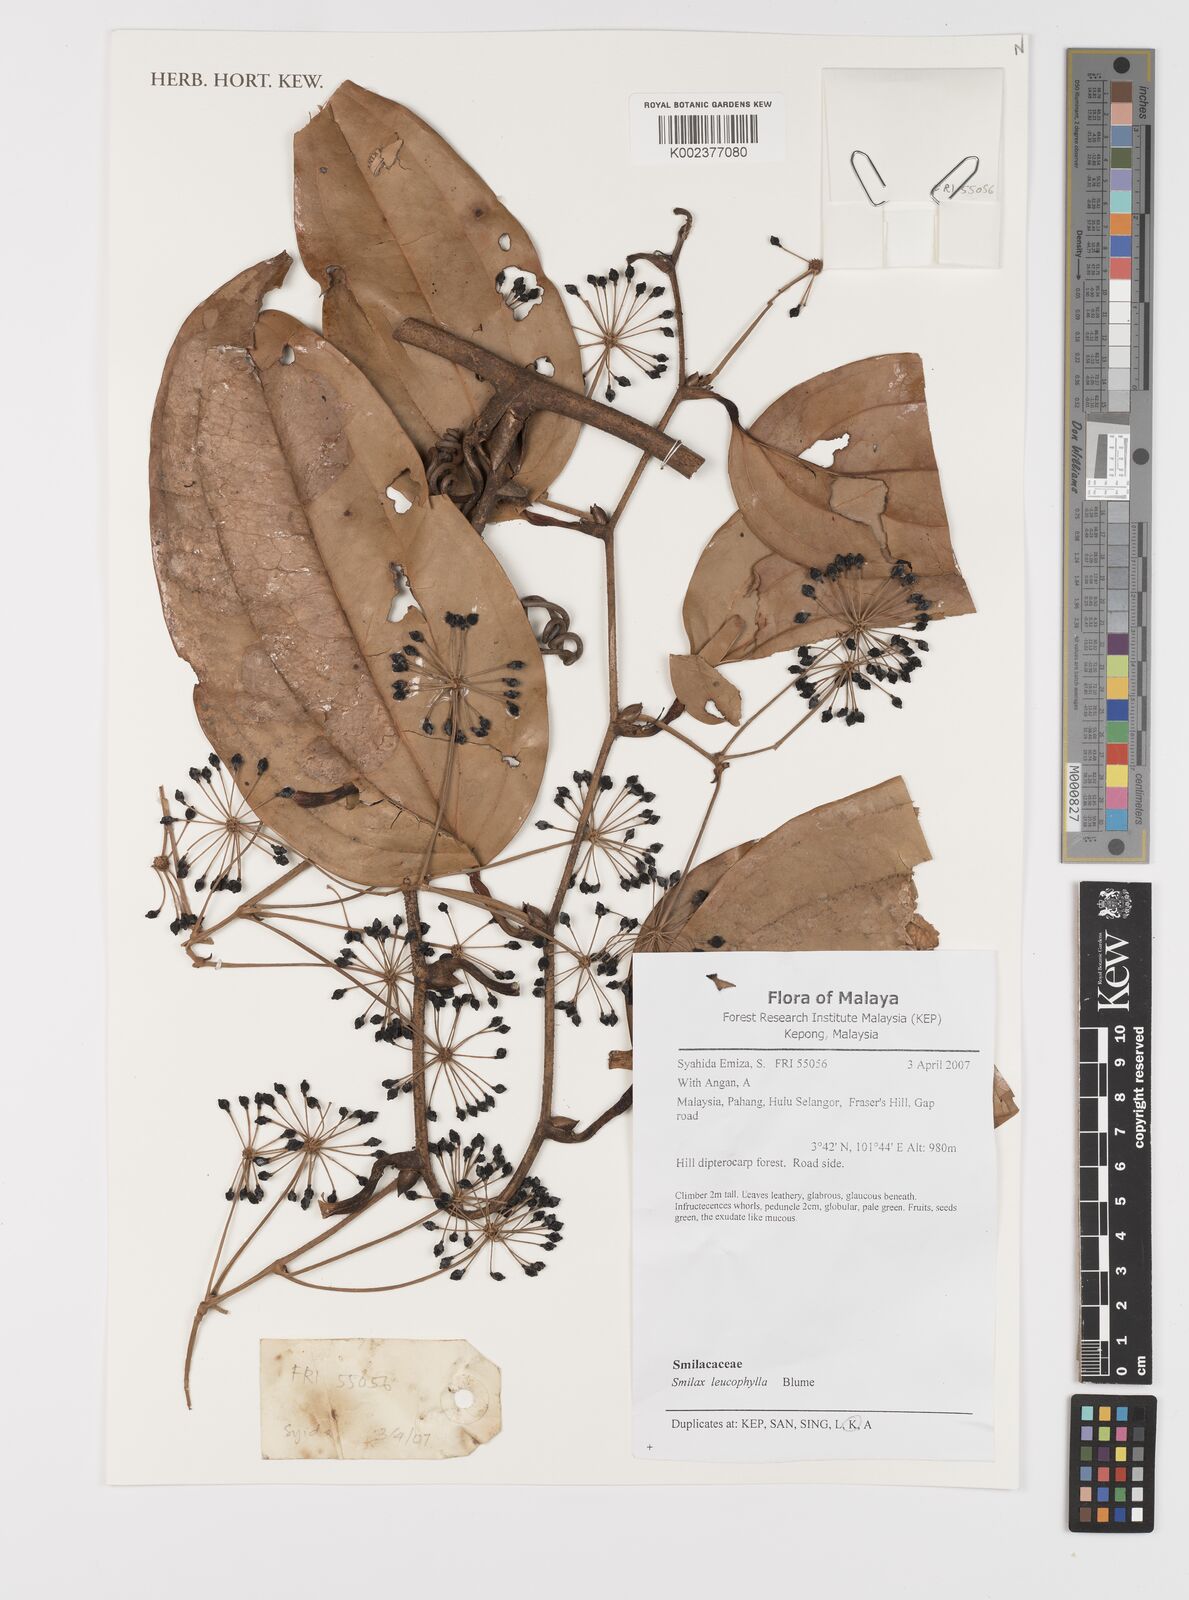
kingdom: Plantae
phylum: Tracheophyta
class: Liliopsida
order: Liliales
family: Smilacaceae
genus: Smilax
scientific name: Smilax leucophylla
